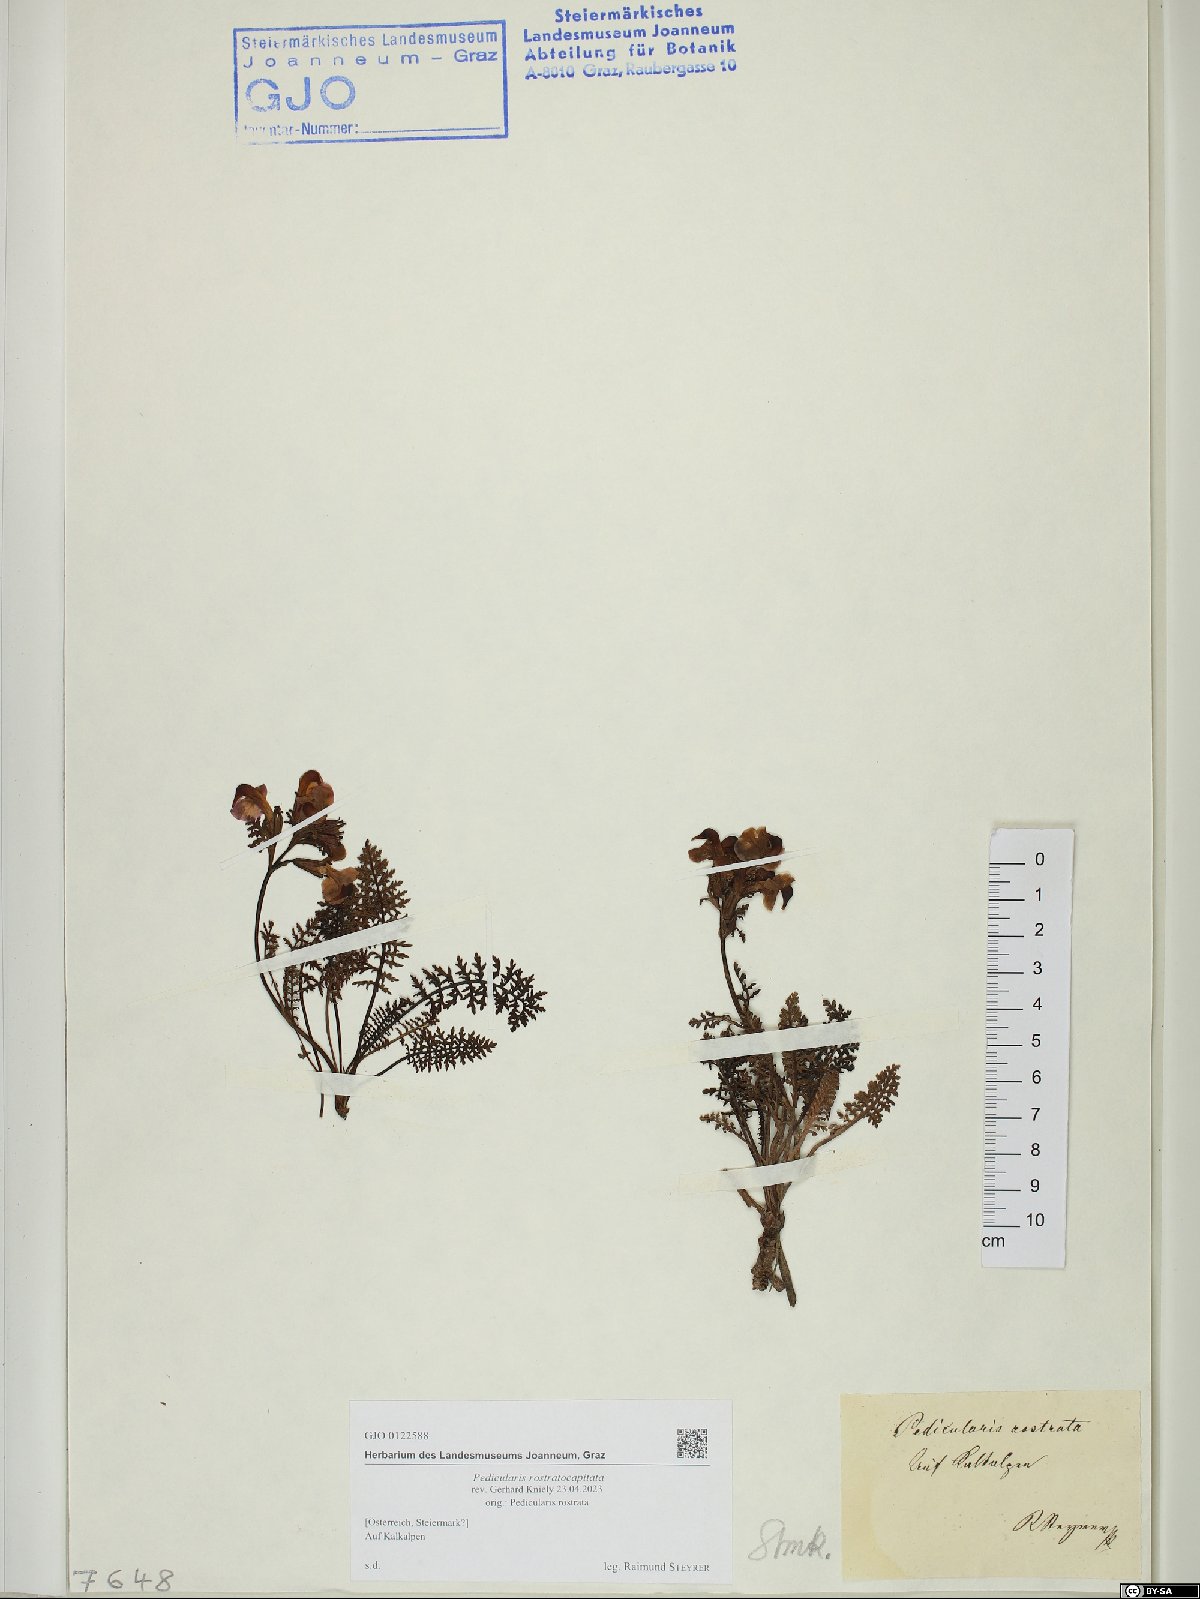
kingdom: Plantae
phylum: Tracheophyta
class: Magnoliopsida
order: Lamiales
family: Orobanchaceae
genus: Pedicularis
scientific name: Pedicularis rostratocapitata
